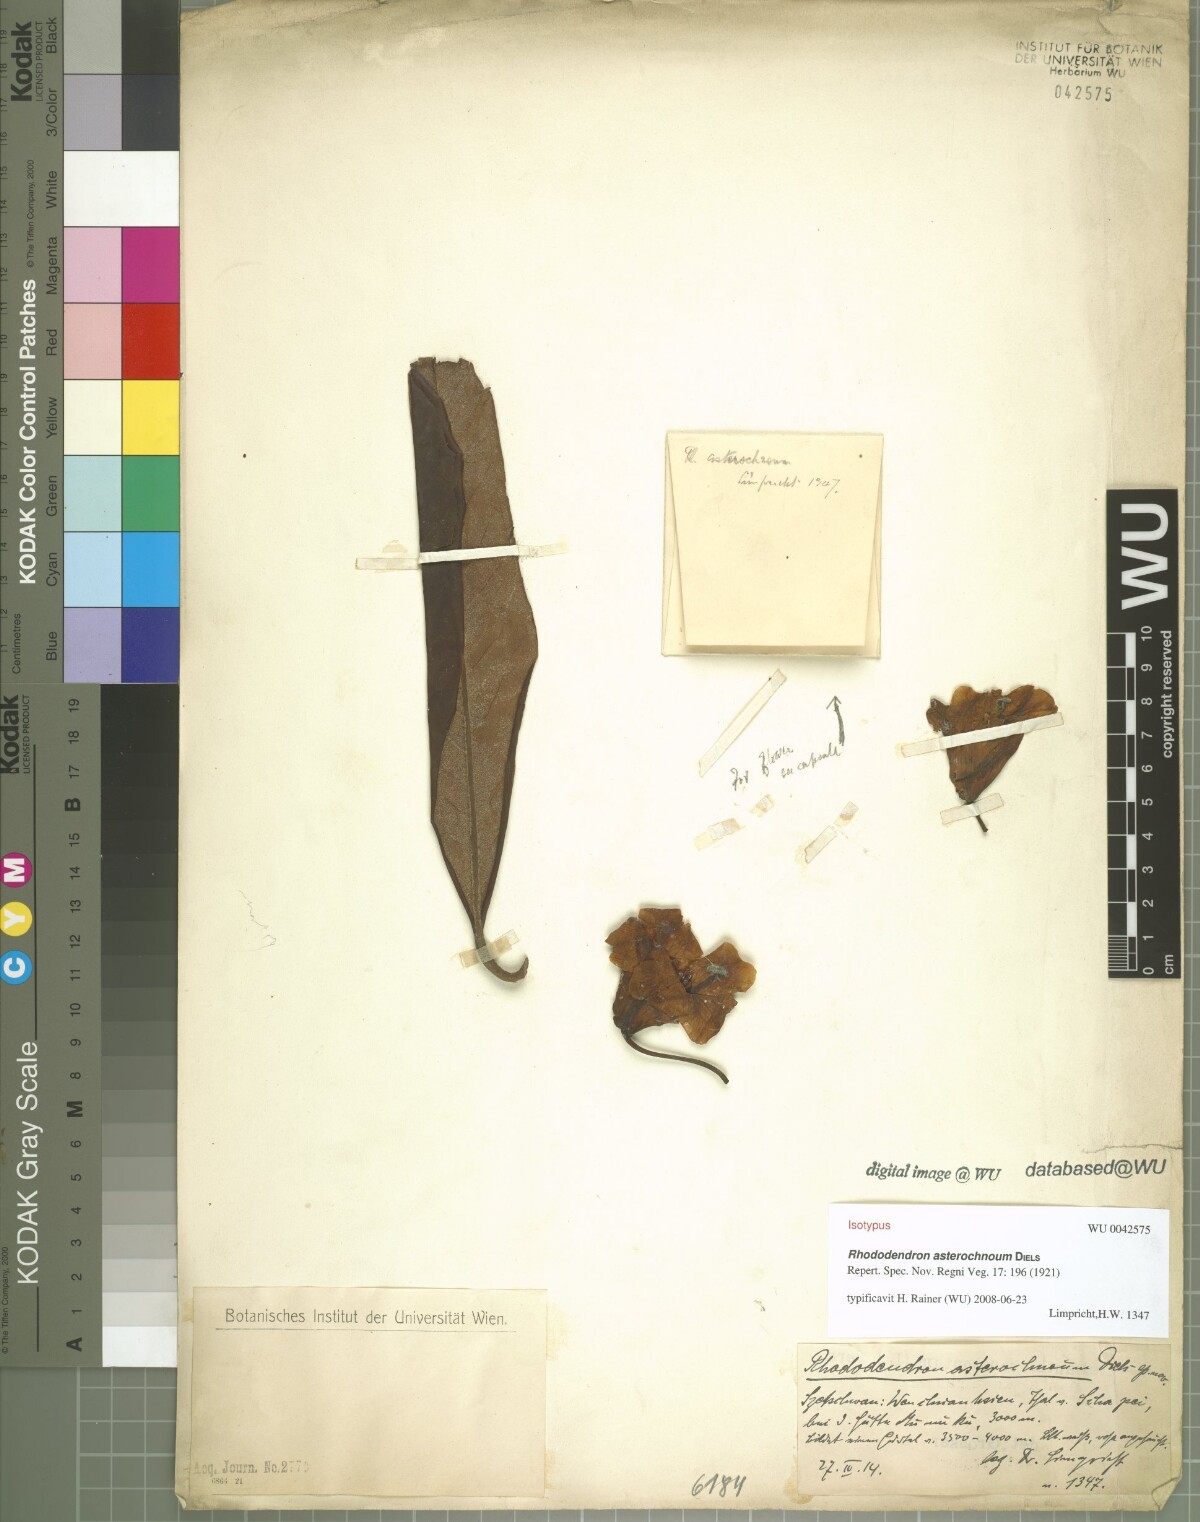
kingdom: Plantae
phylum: Tracheophyta
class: Magnoliopsida
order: Ericales
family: Ericaceae
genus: Rhododendron
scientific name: Rhododendron asterochnoum
